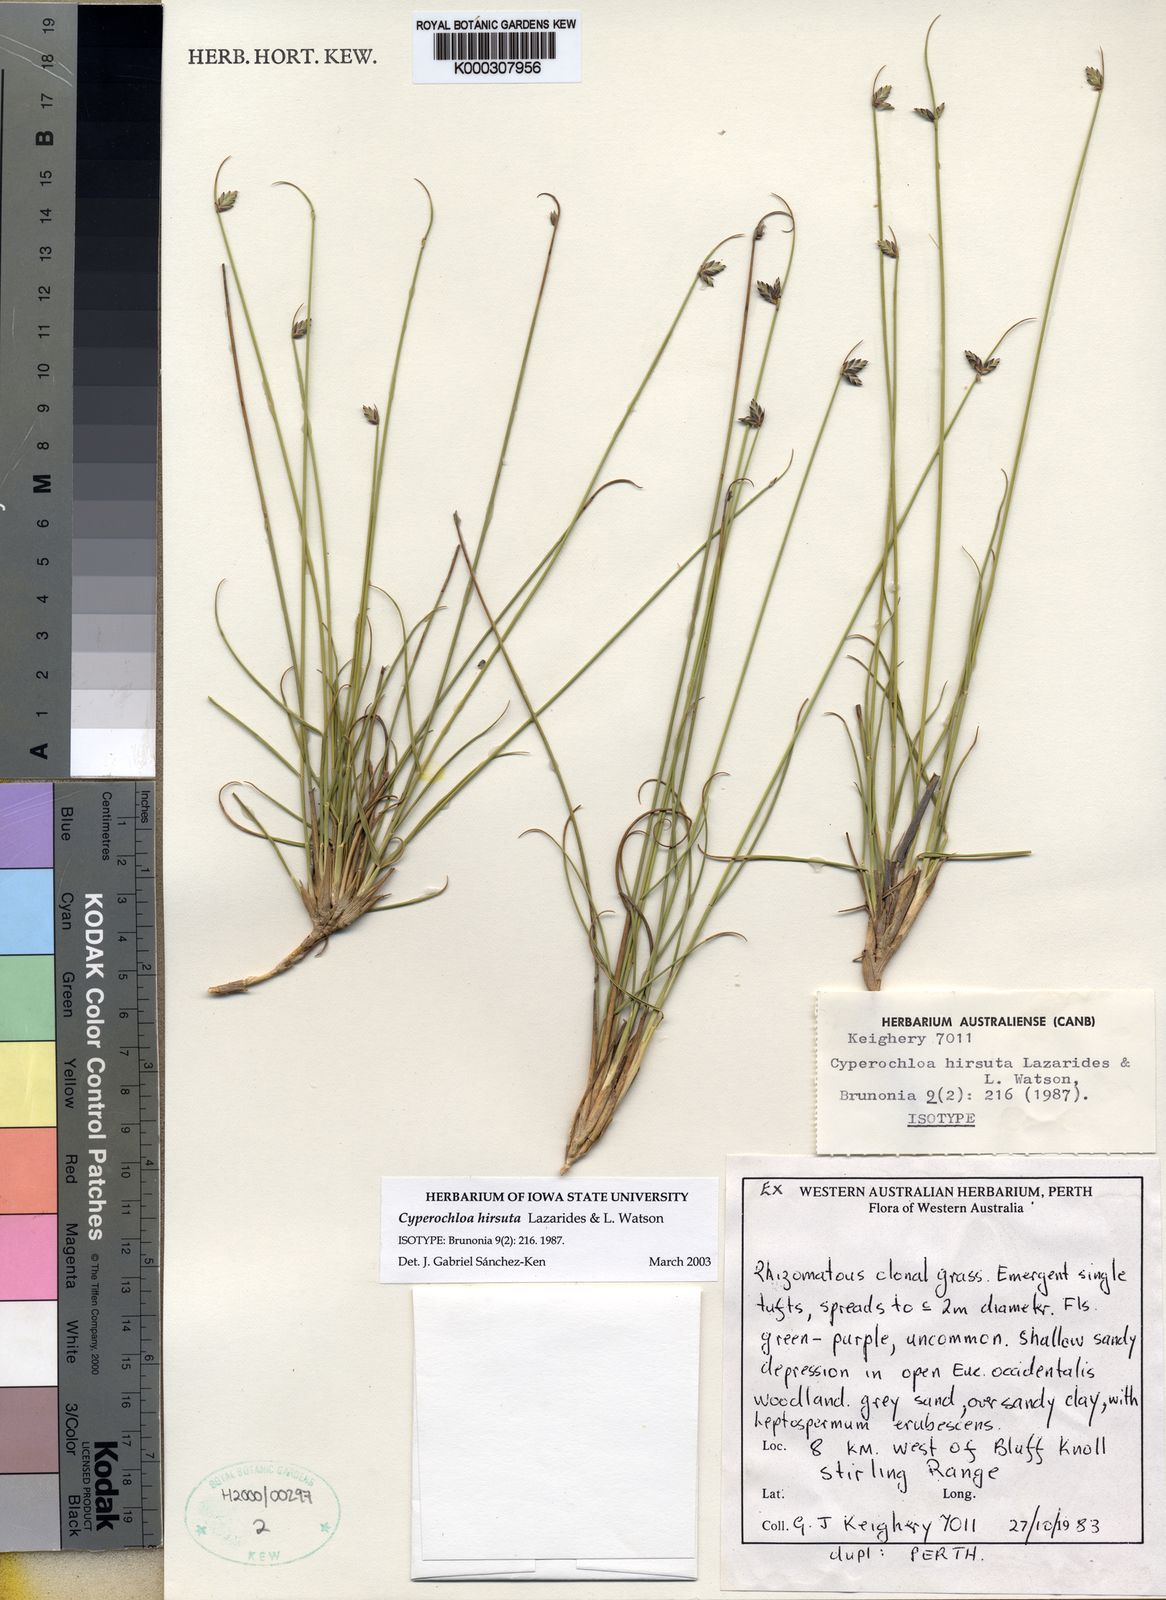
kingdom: Plantae
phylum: Tracheophyta
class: Liliopsida
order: Poales
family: Poaceae
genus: Cyperochloa
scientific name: Cyperochloa hirsuta
